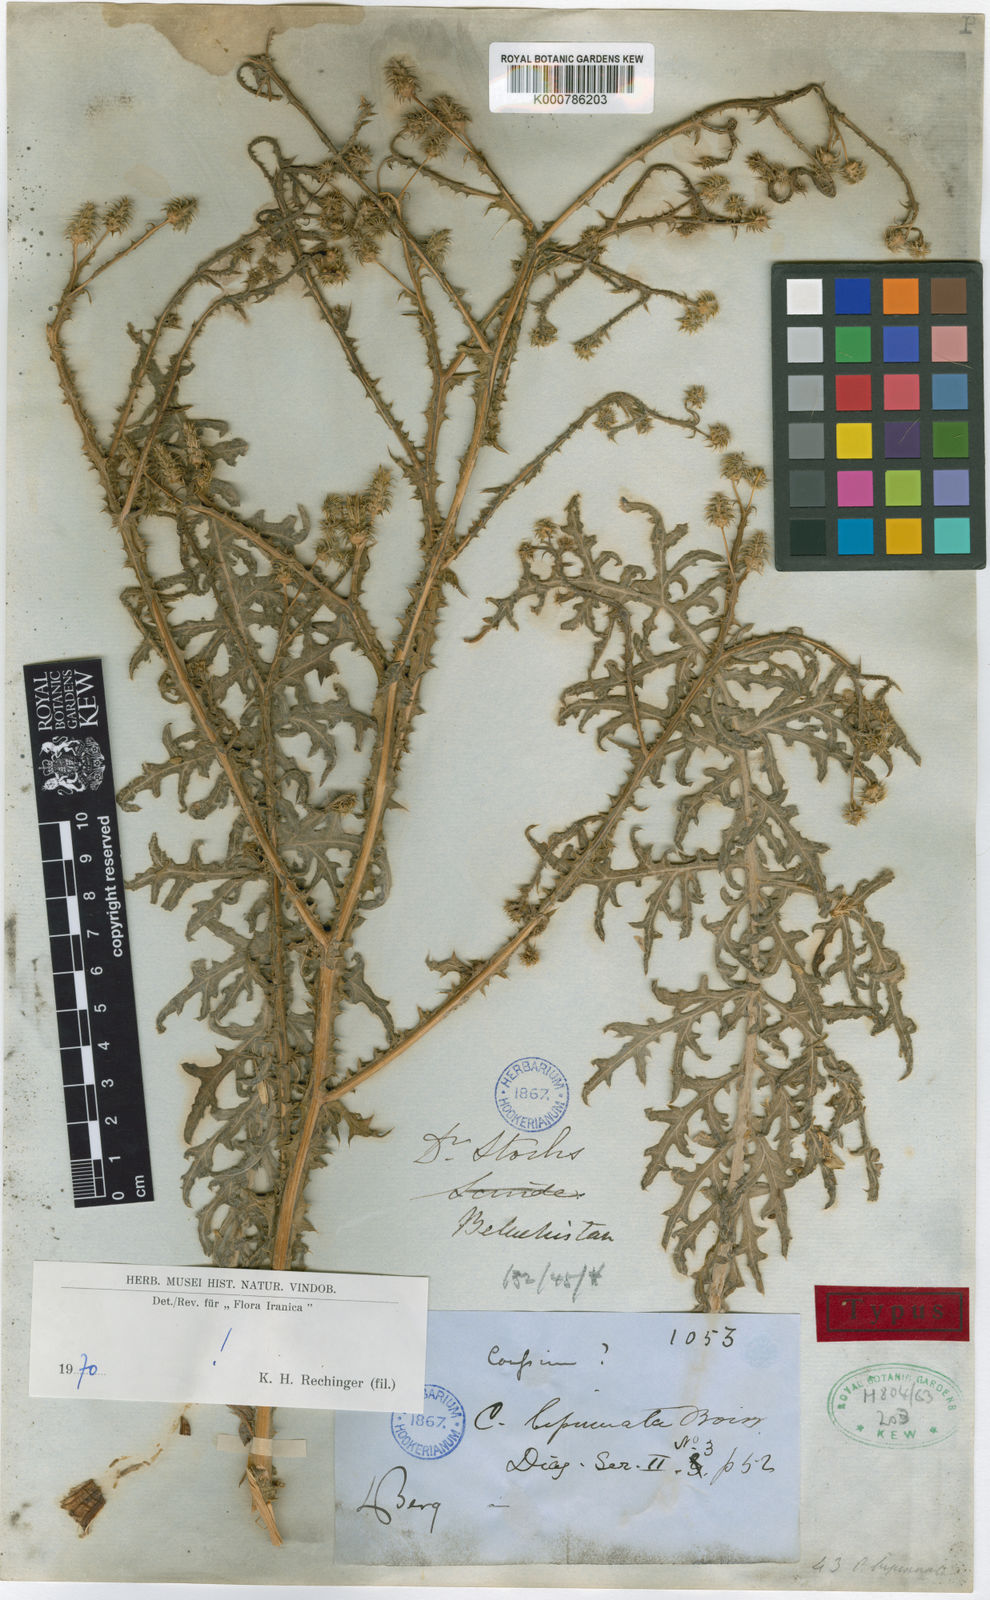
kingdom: Plantae
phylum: Tracheophyta
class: Magnoliopsida
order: Asterales
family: Asteraceae
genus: Cousinia
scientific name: Cousinia bipinnata
